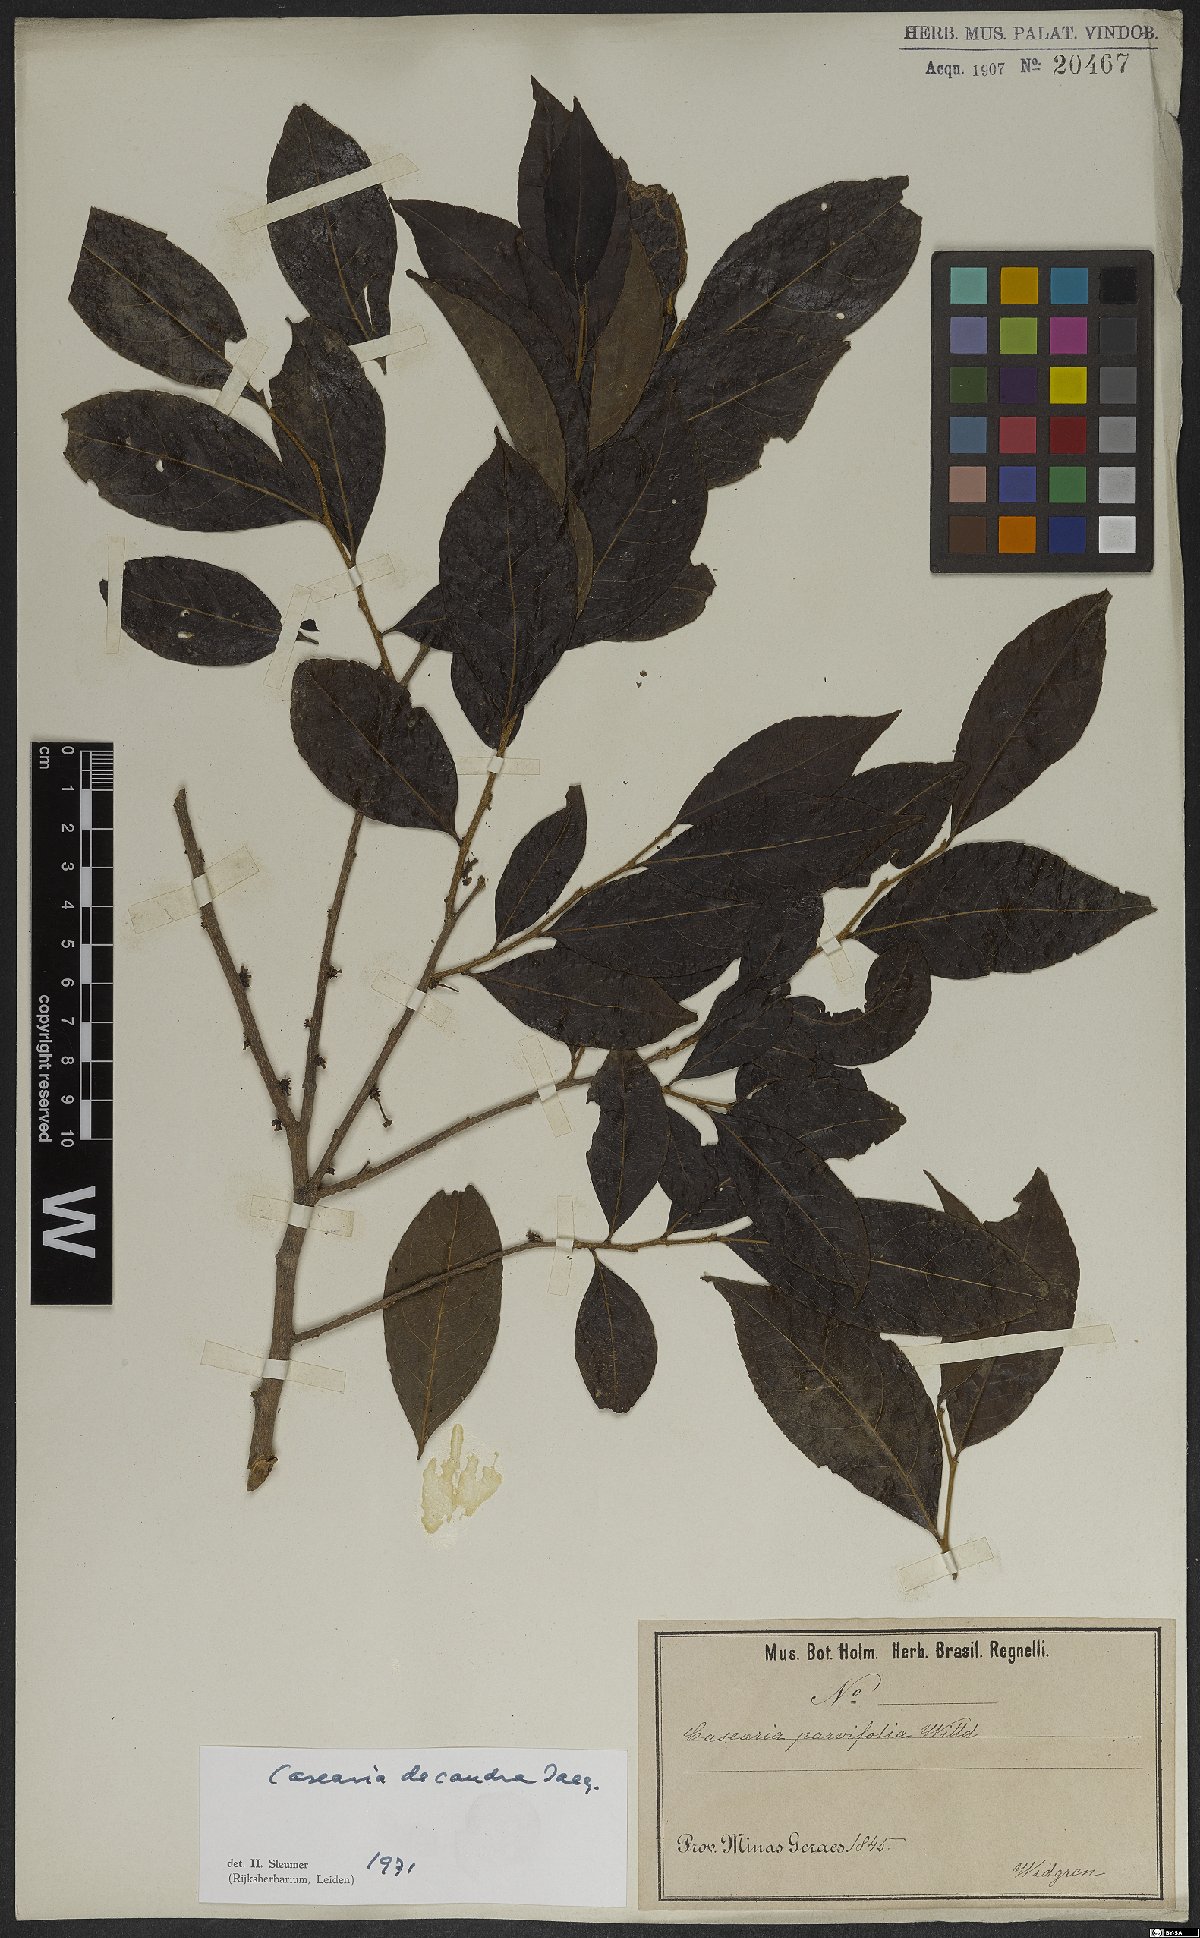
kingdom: Plantae
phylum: Tracheophyta
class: Magnoliopsida
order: Malpighiales
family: Salicaceae
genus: Casearia
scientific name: Casearia decandra
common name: Crack open
